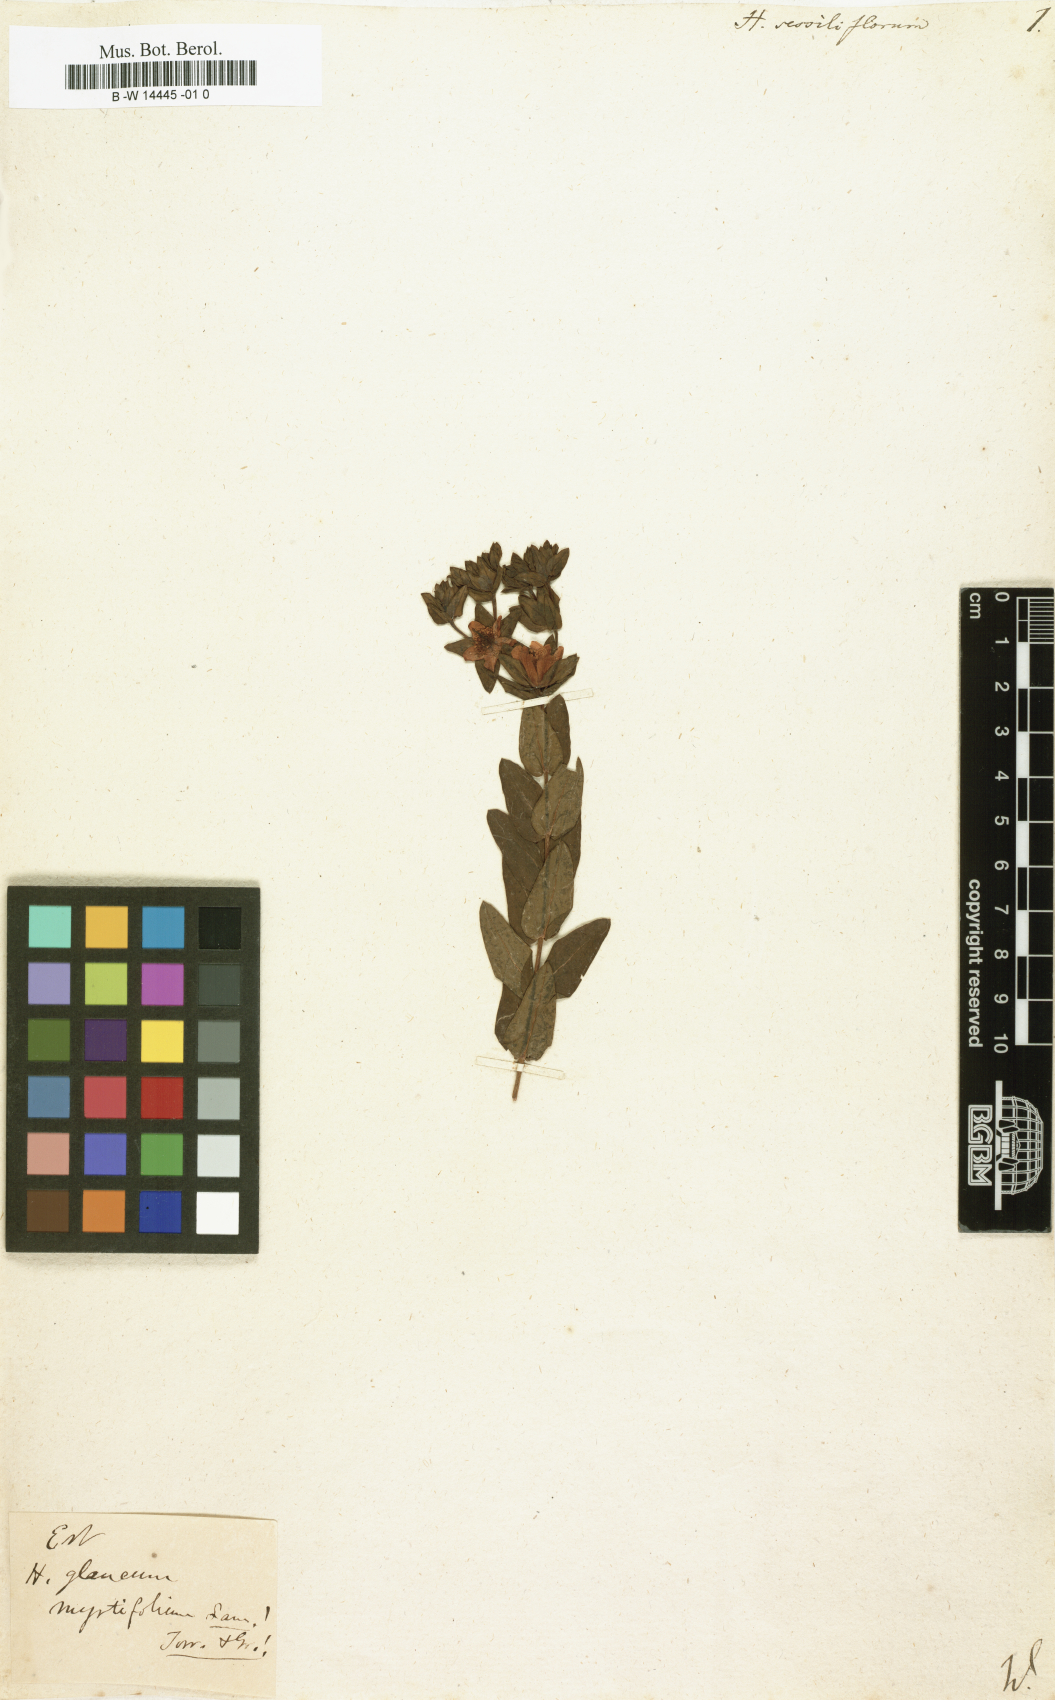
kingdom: Plantae
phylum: Tracheophyta
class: Magnoliopsida
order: Malpighiales
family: Hypericaceae
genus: Hypericum
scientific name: Hypericum myrtifolium
